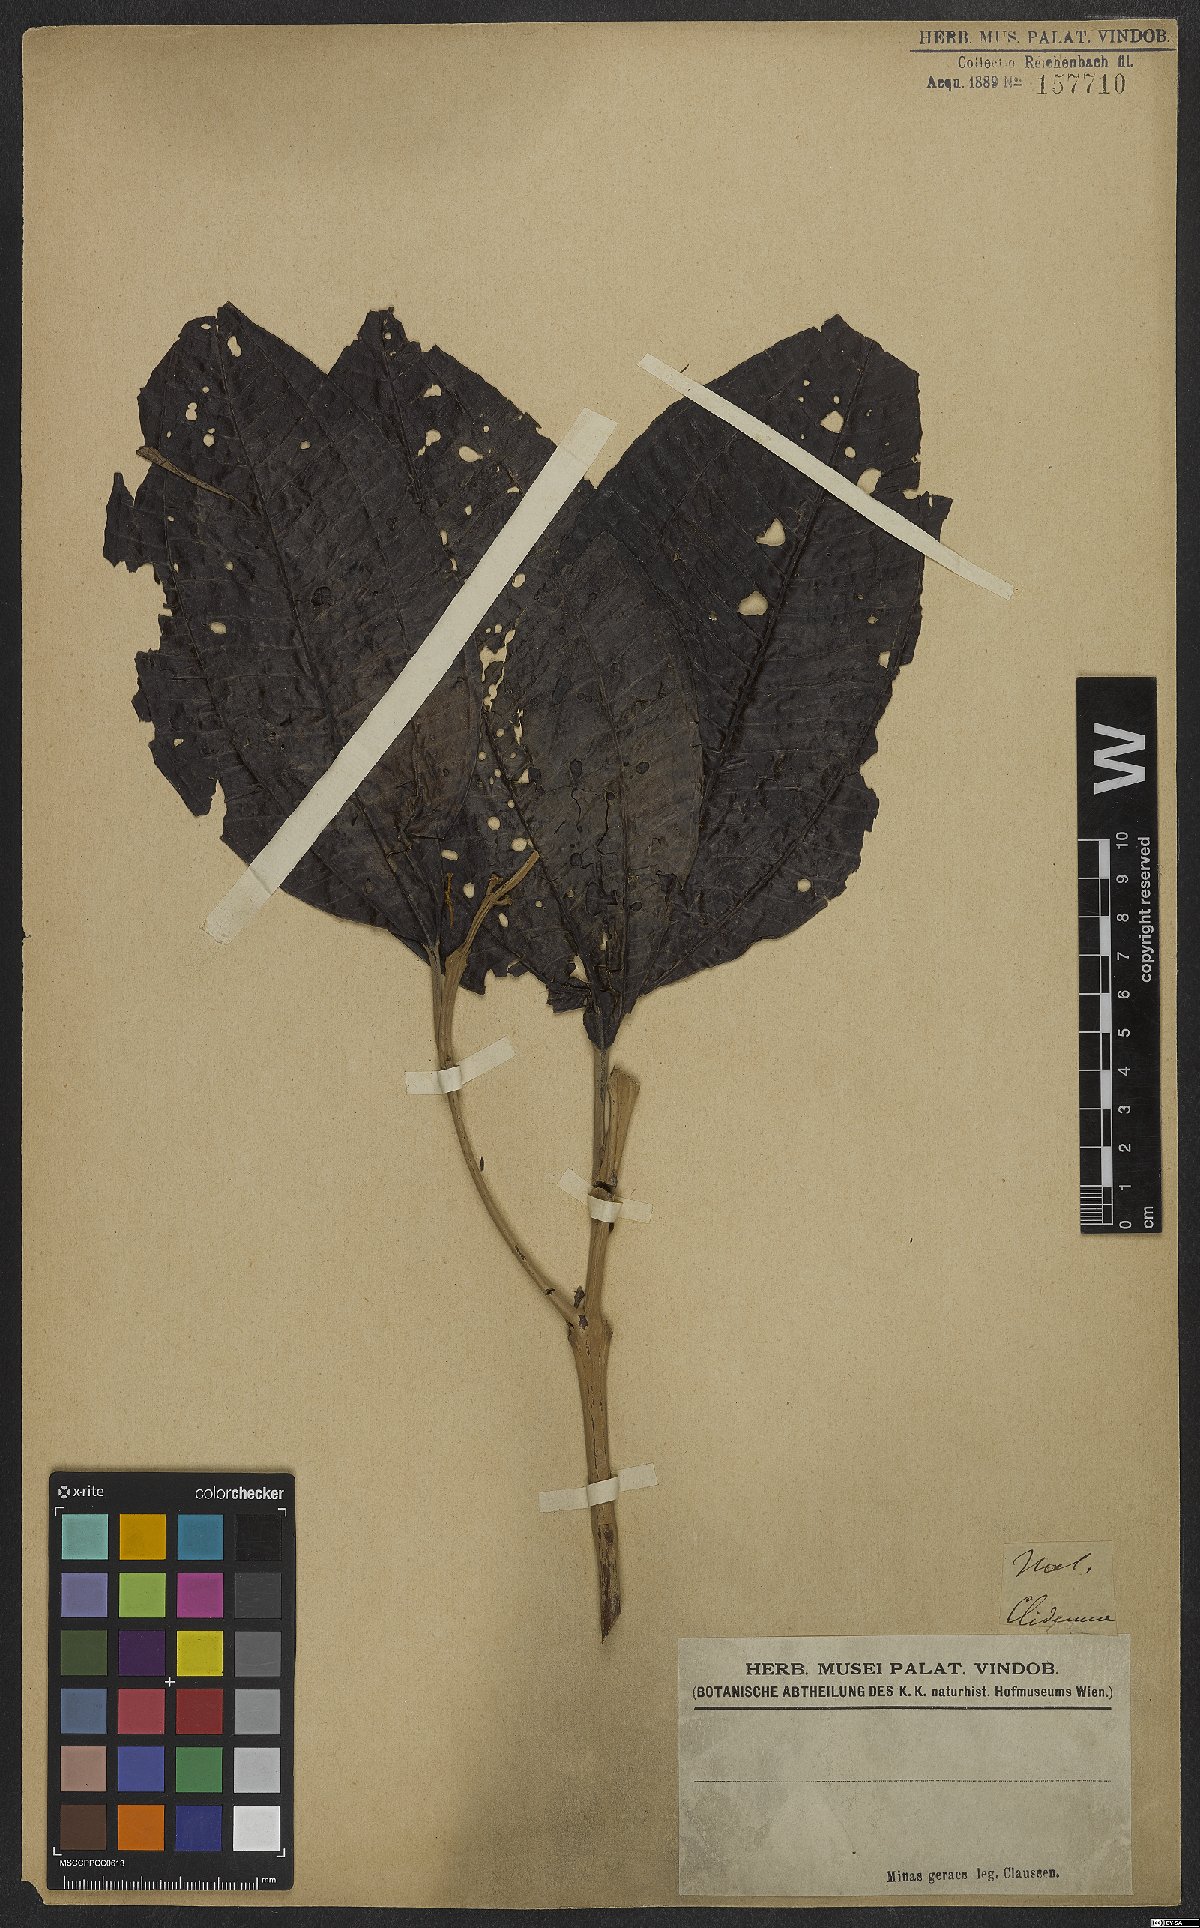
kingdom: Plantae
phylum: Tracheophyta
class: Magnoliopsida
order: Myrtales
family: Melastomataceae
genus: Miconia
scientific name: Miconia
